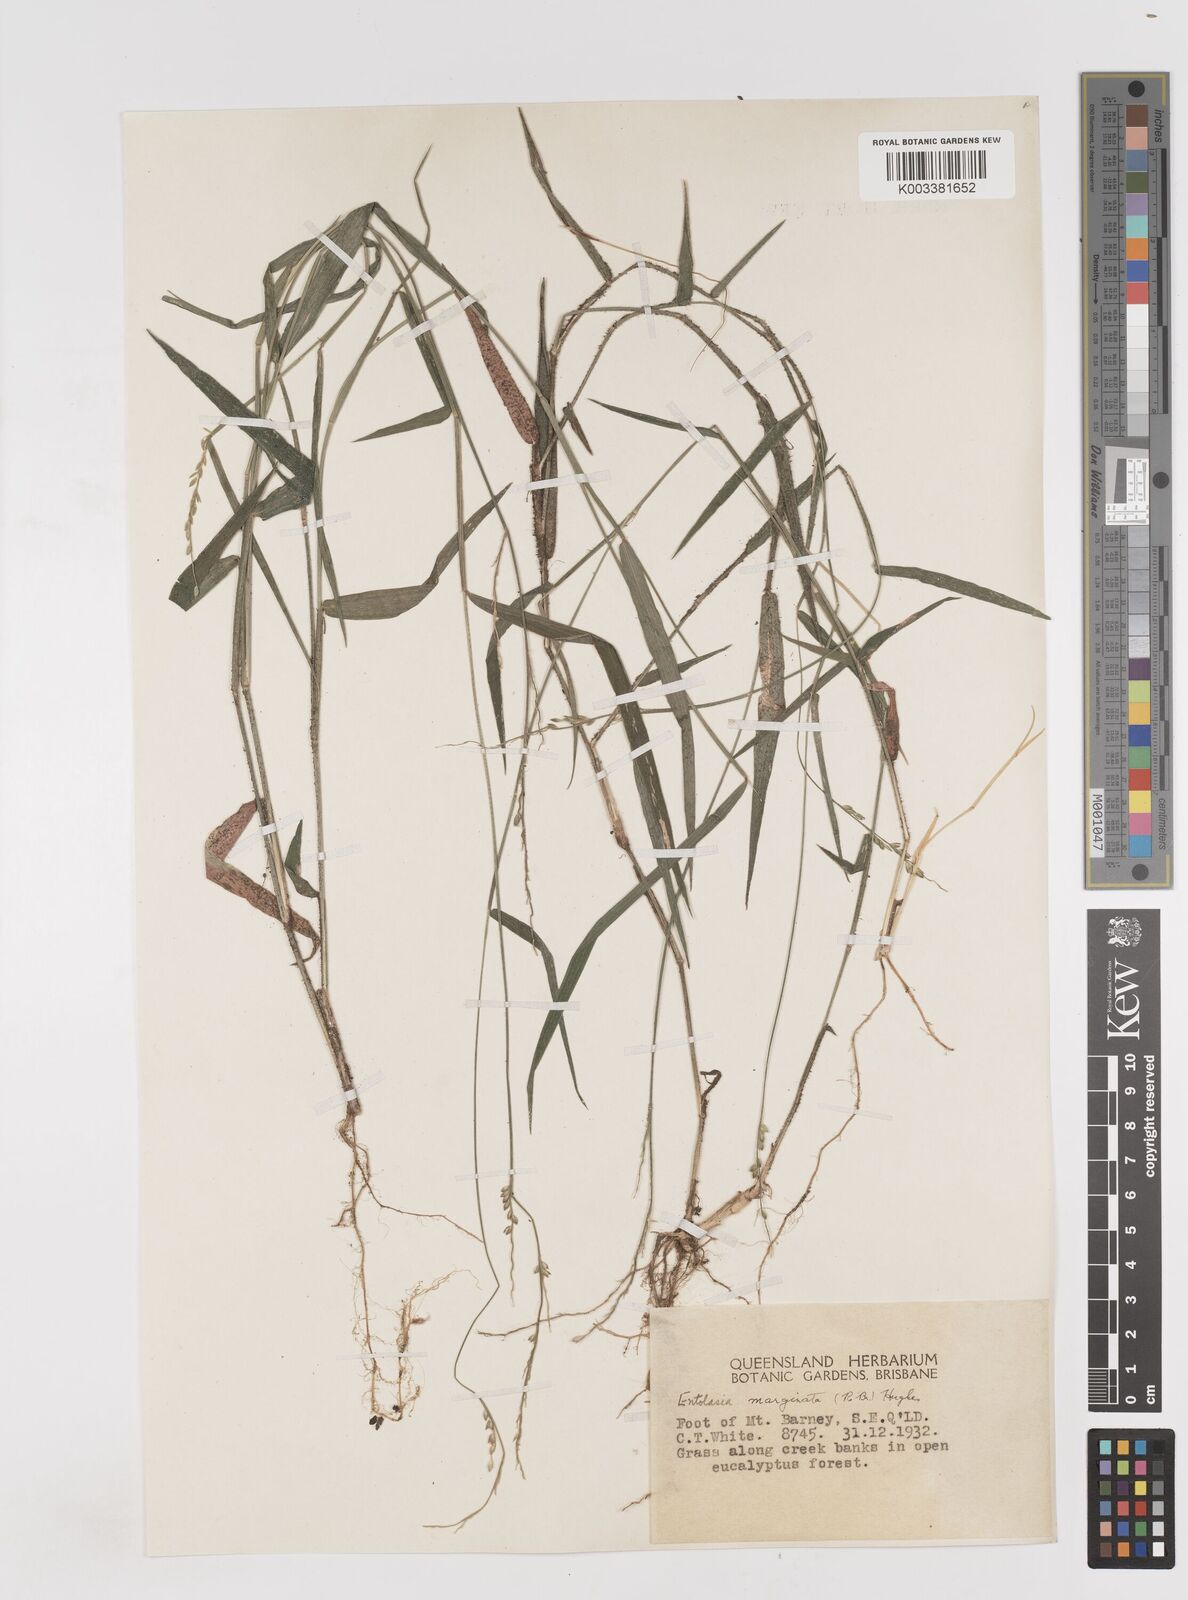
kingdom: Plantae
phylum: Tracheophyta
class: Liliopsida
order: Poales
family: Poaceae
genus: Entolasia
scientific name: Entolasia marginata
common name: Australian panicgrass
